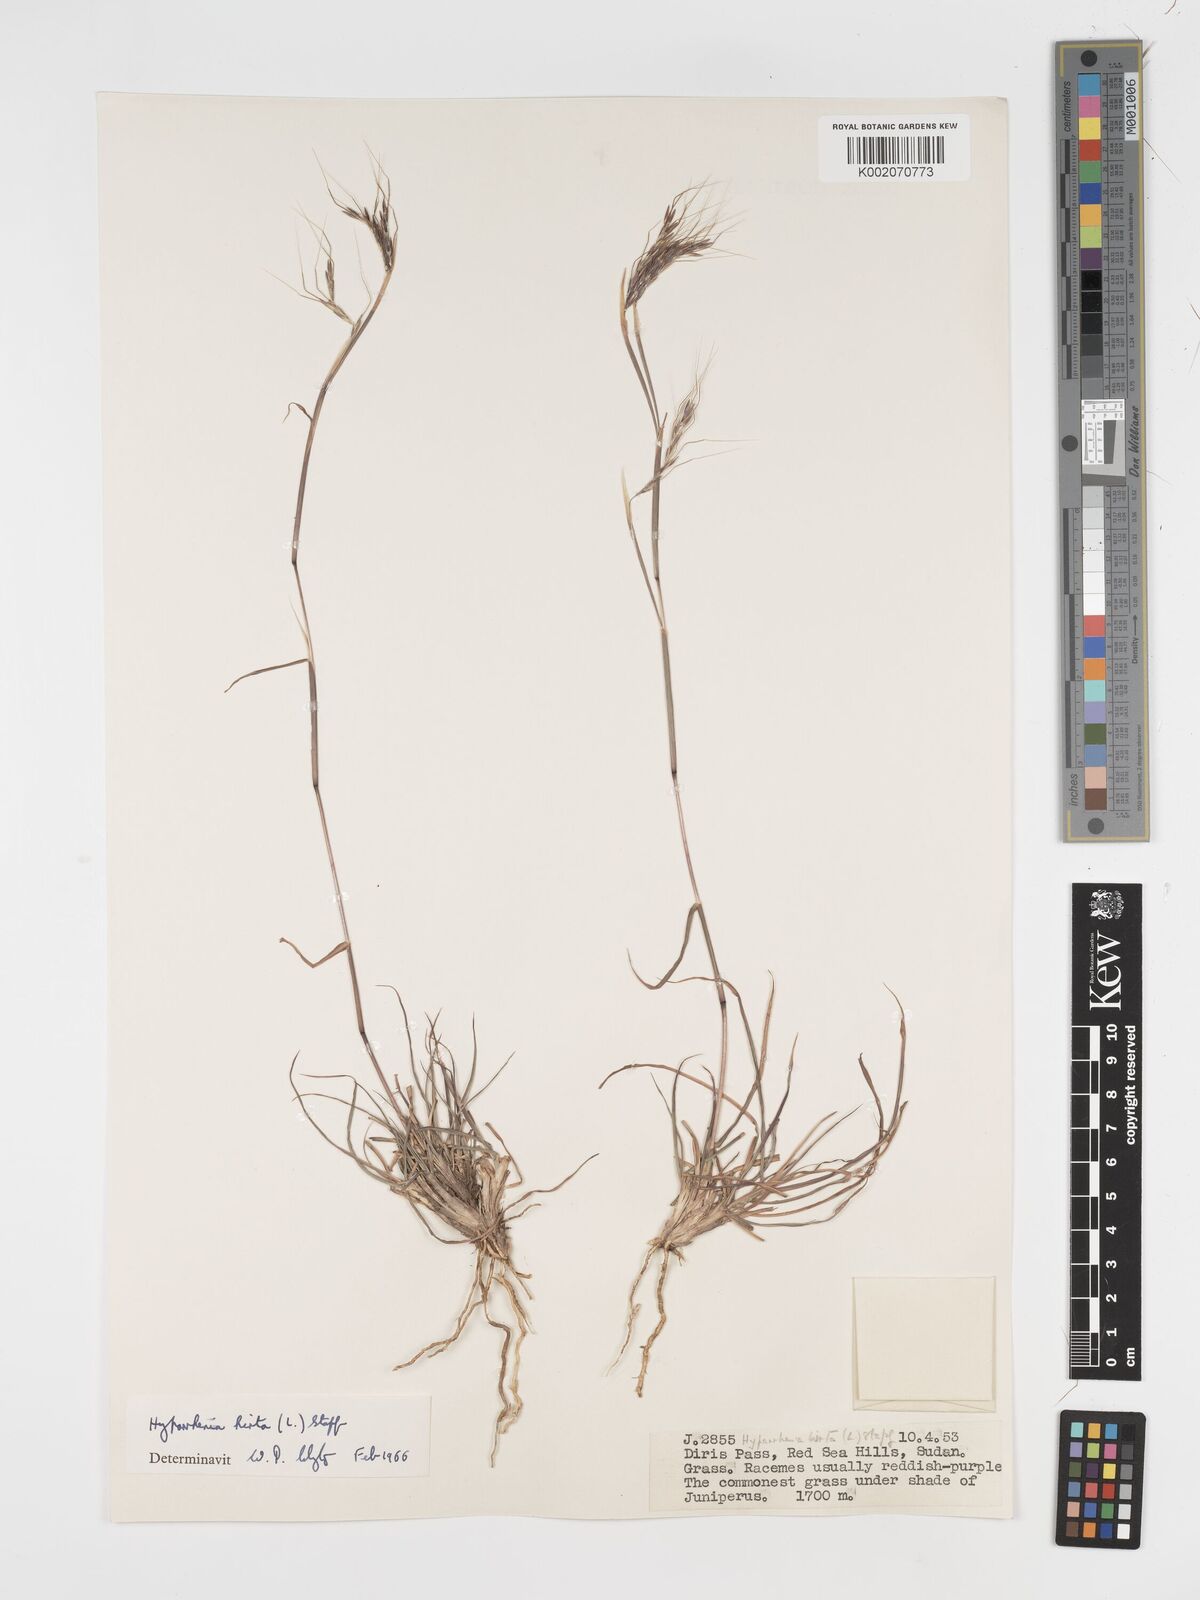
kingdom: Plantae
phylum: Tracheophyta
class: Liliopsida
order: Poales
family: Poaceae
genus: Hyparrhenia
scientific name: Hyparrhenia hirta
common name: Thatching grass
